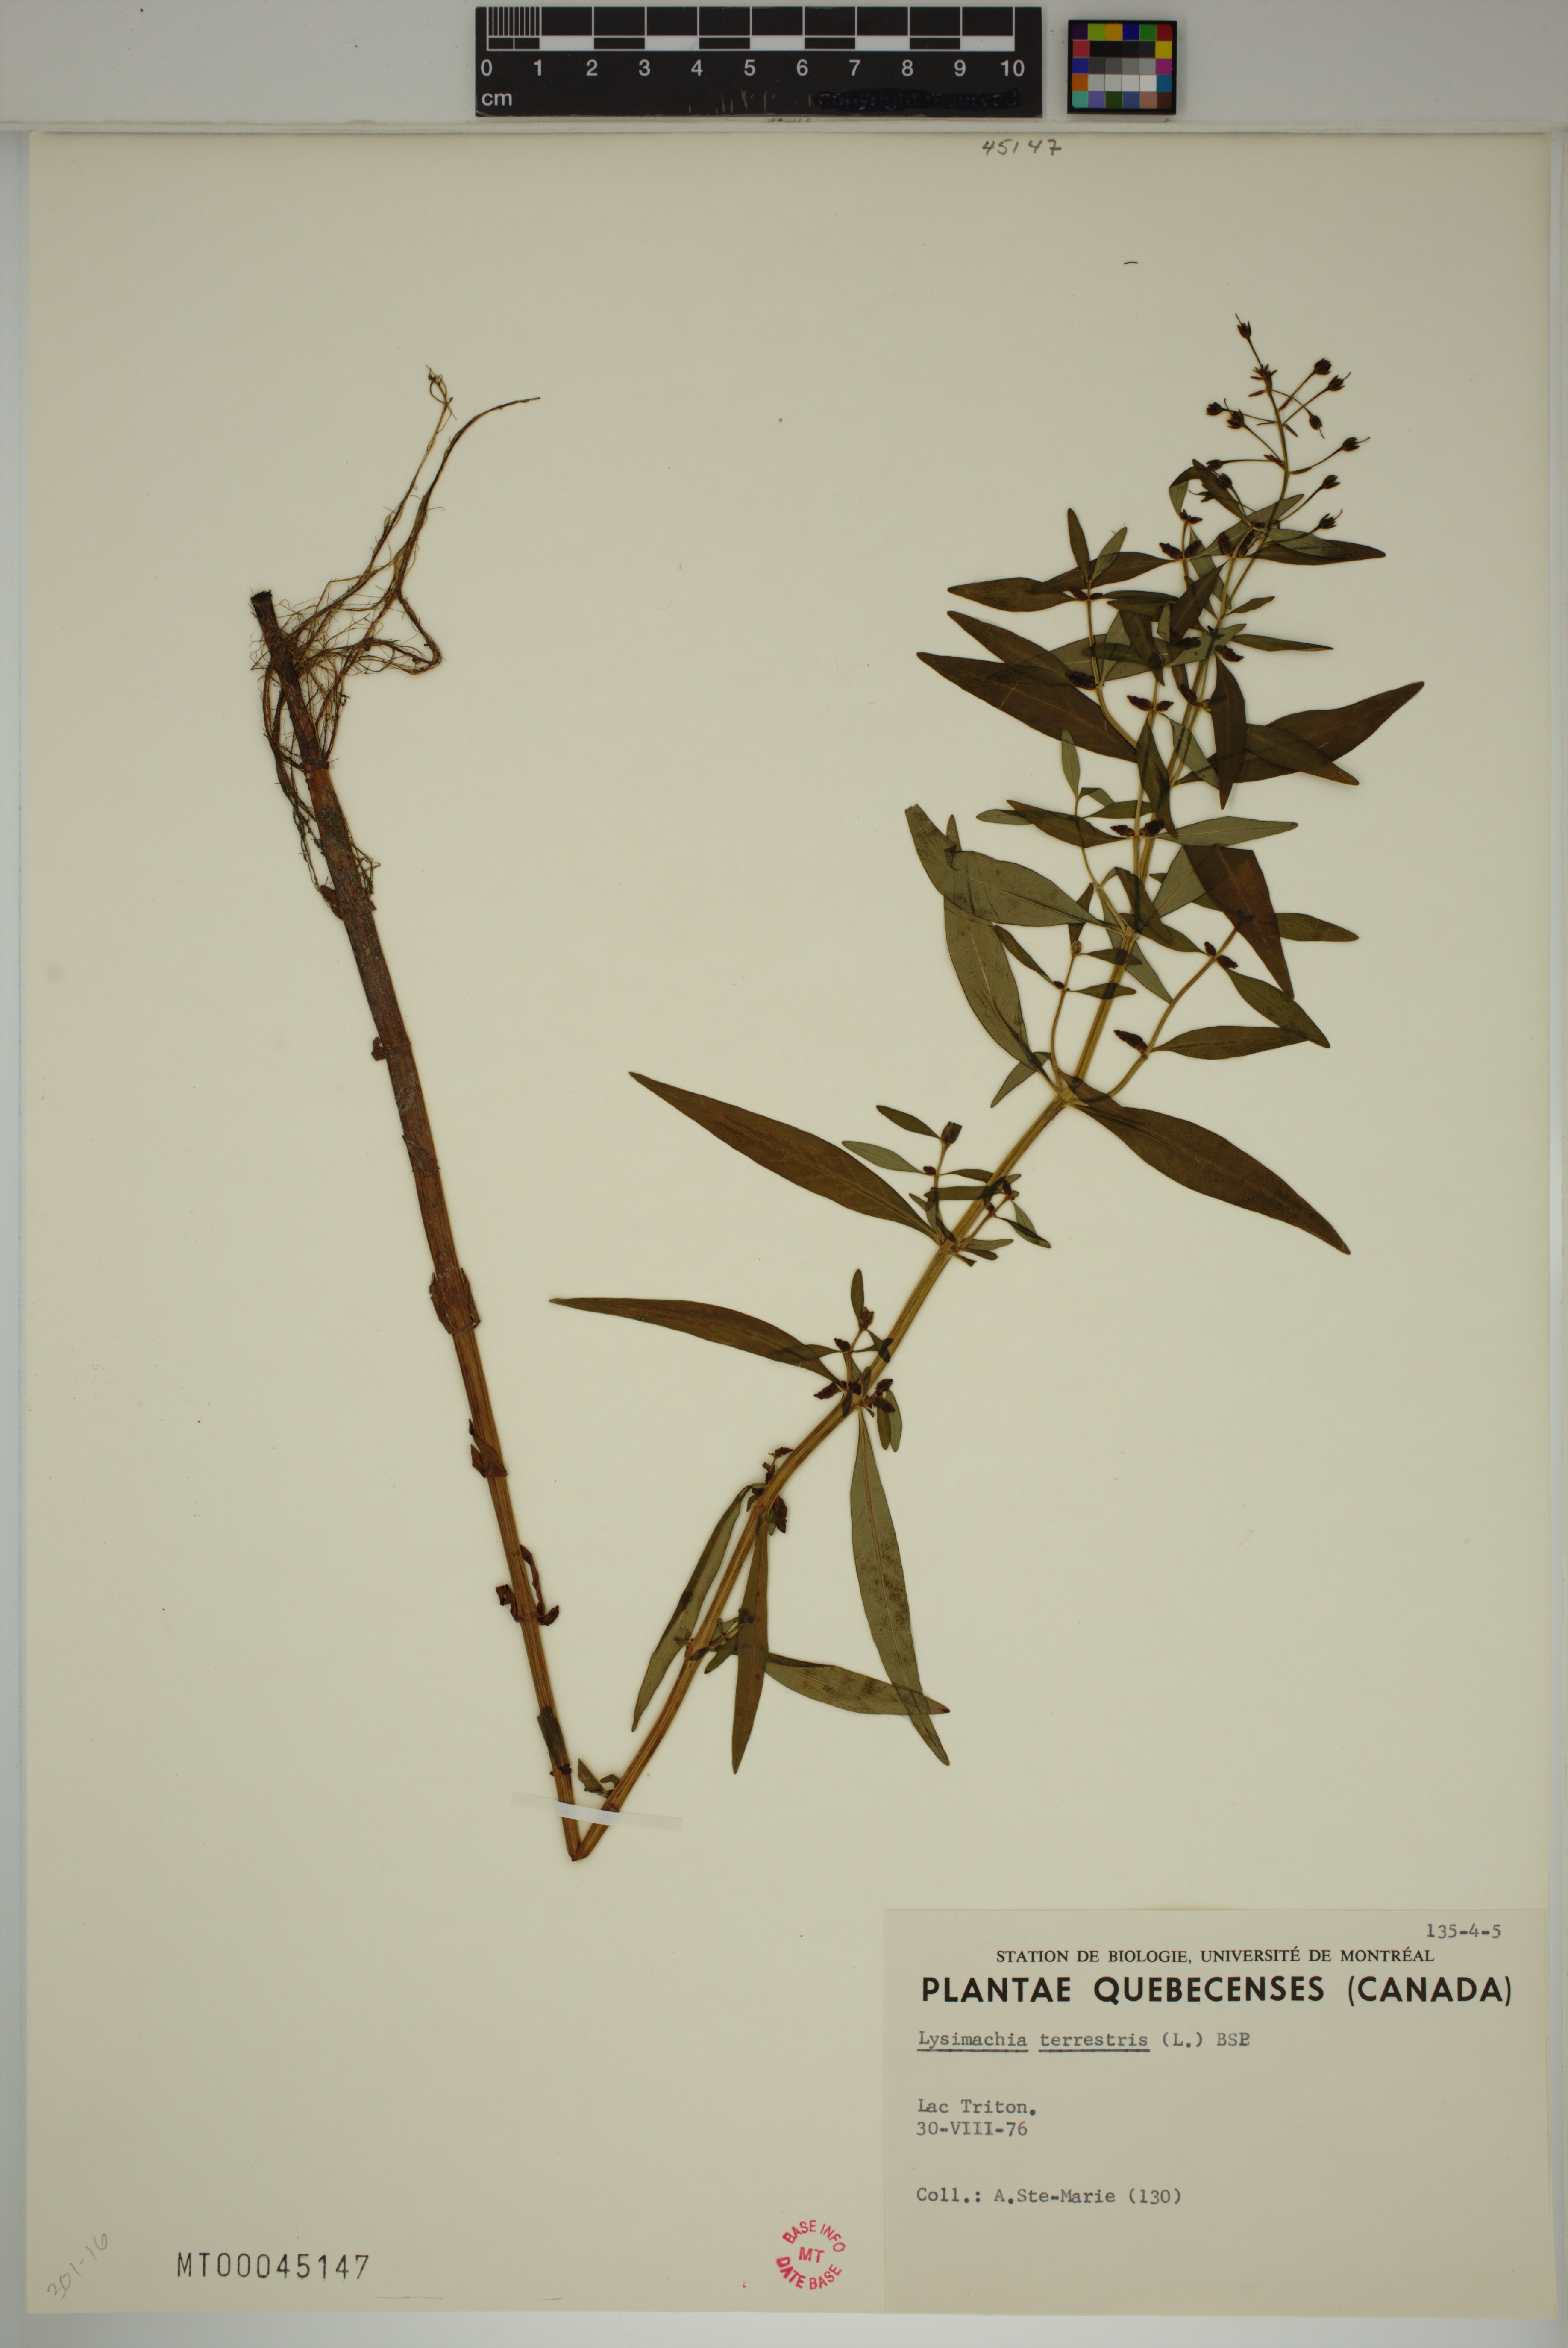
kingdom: Plantae
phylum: Tracheophyta
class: Magnoliopsida
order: Ericales
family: Primulaceae
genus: Lysimachia
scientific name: Lysimachia terrestris
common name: Lake loosestrife
